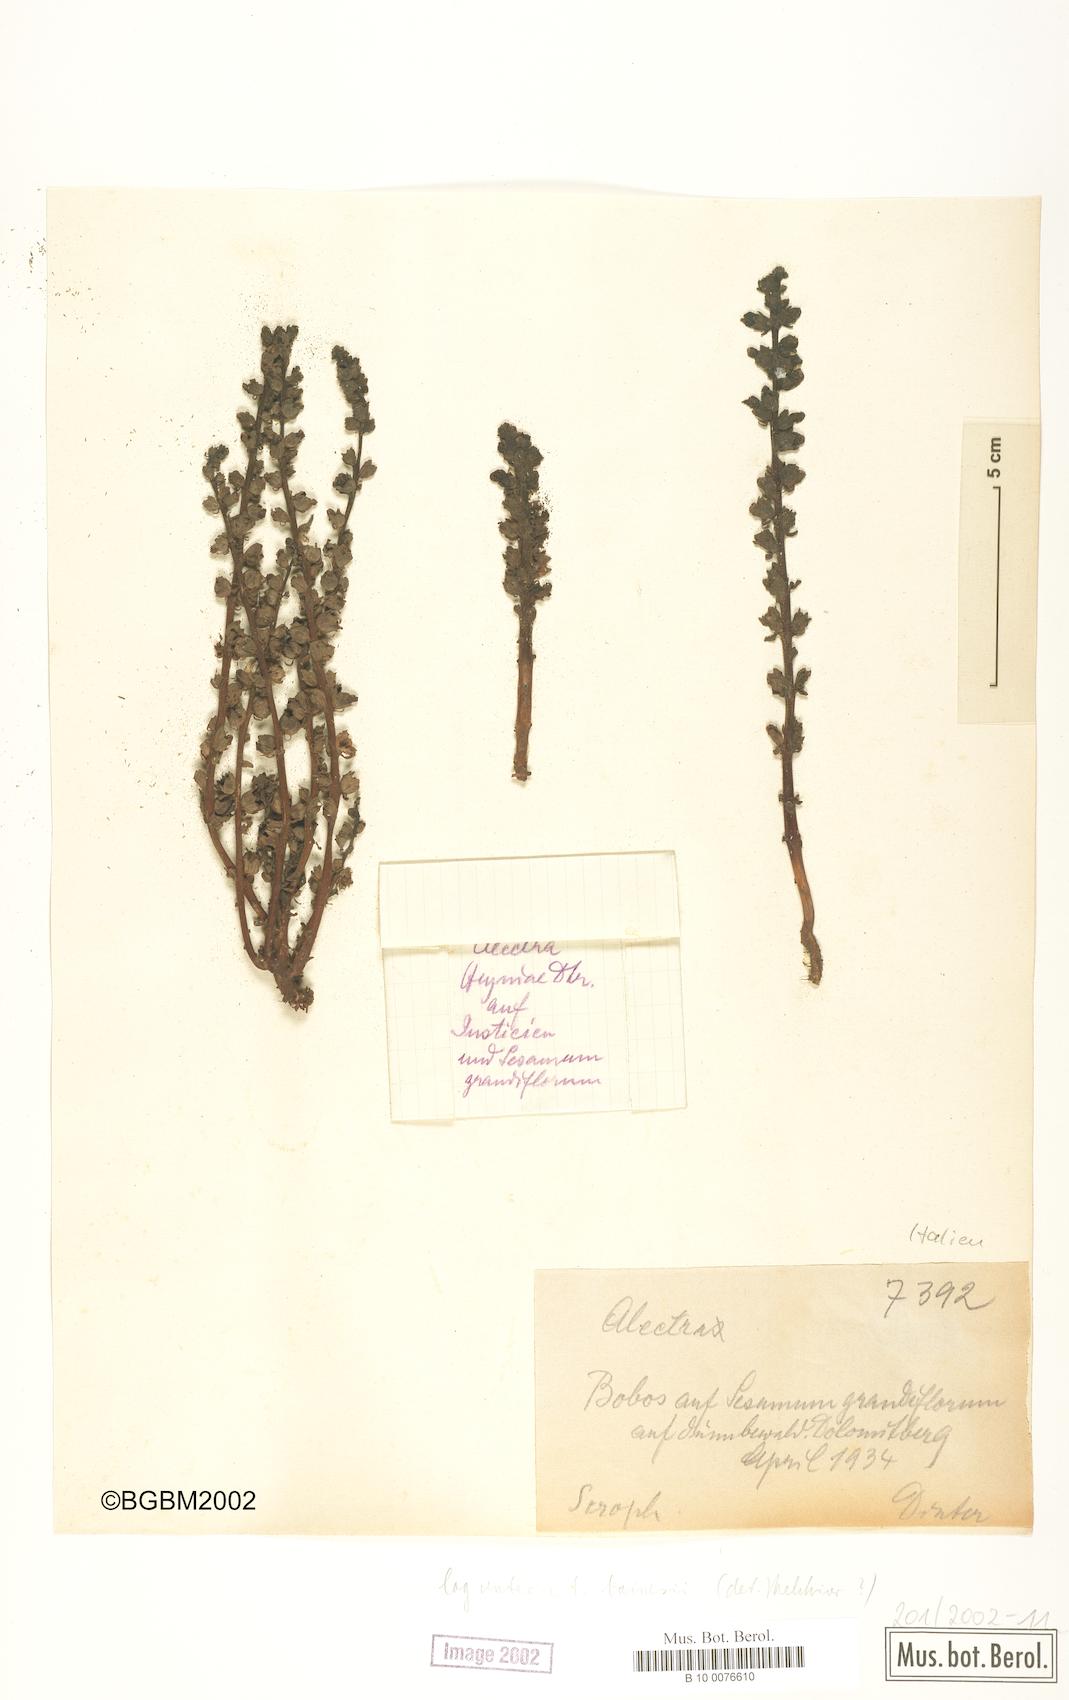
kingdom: Plantae
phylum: Tracheophyta
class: Magnoliopsida
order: Lamiales
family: Orobanchaceae
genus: Alectra
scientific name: Alectra bainesii
